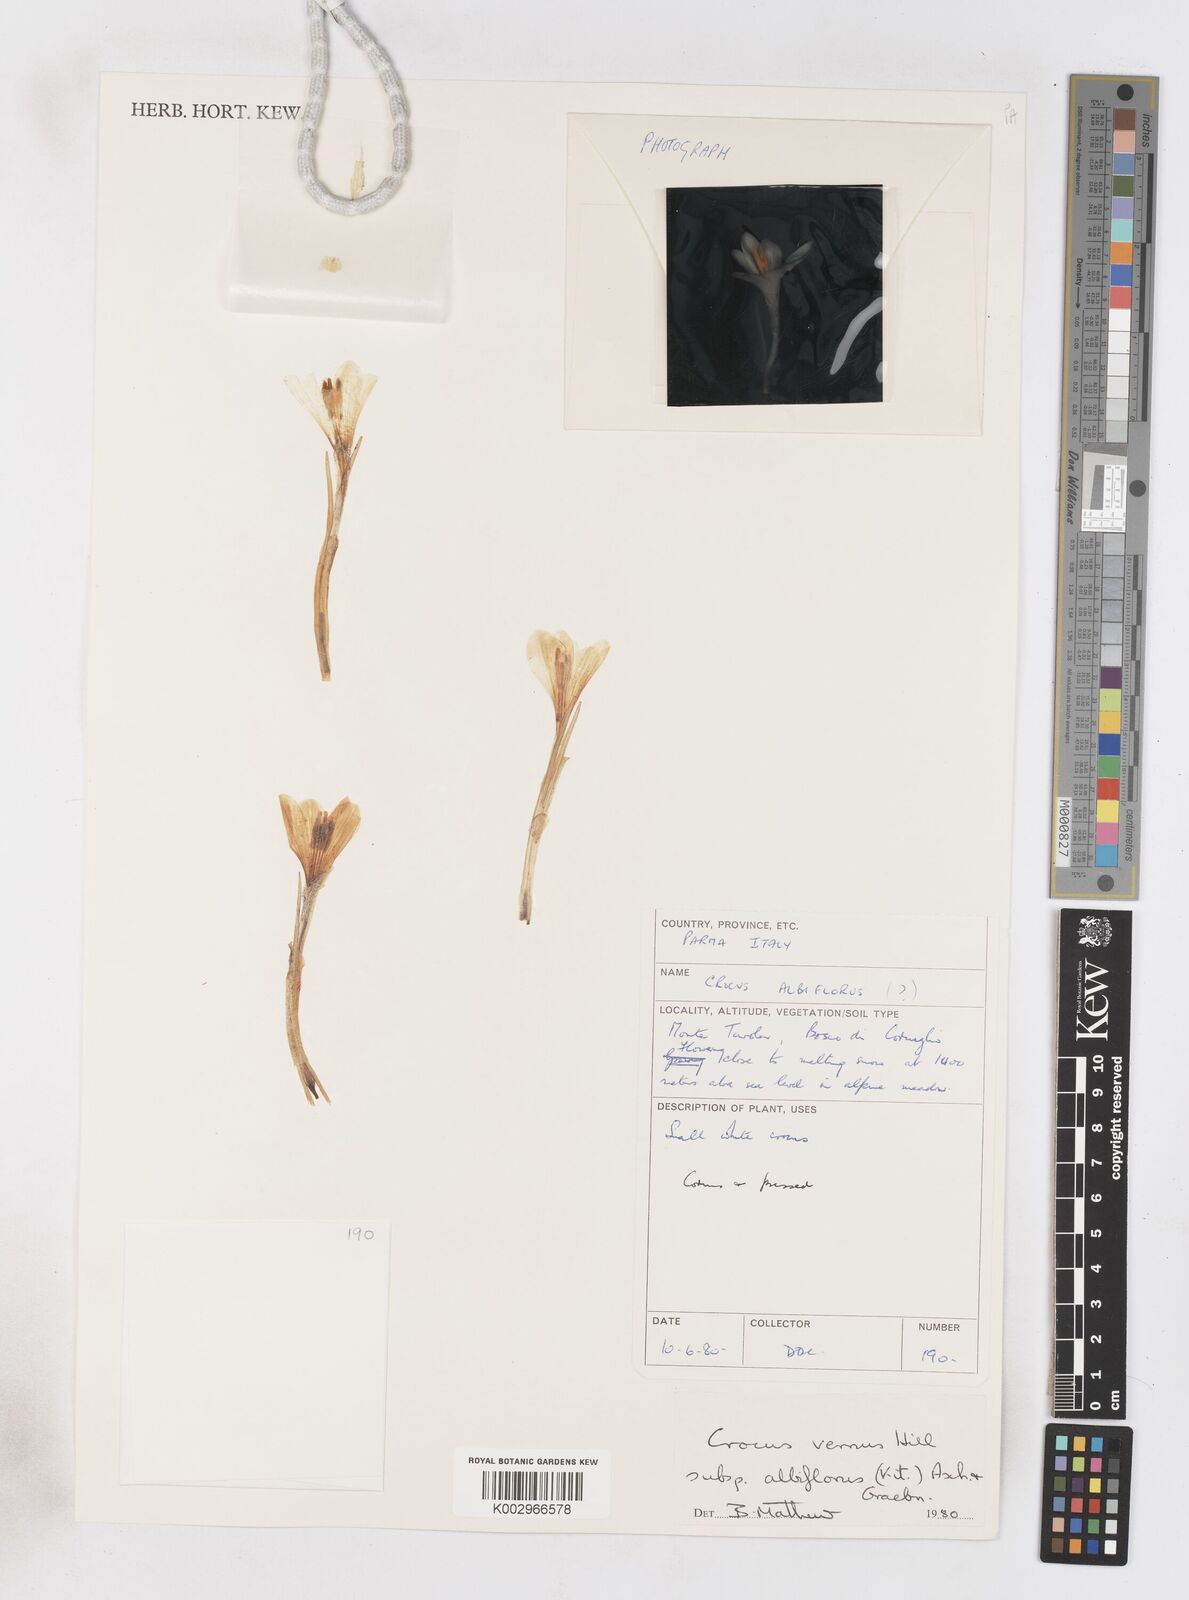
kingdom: Plantae
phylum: Tracheophyta
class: Liliopsida
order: Asparagales
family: Iridaceae
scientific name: Iridaceae
